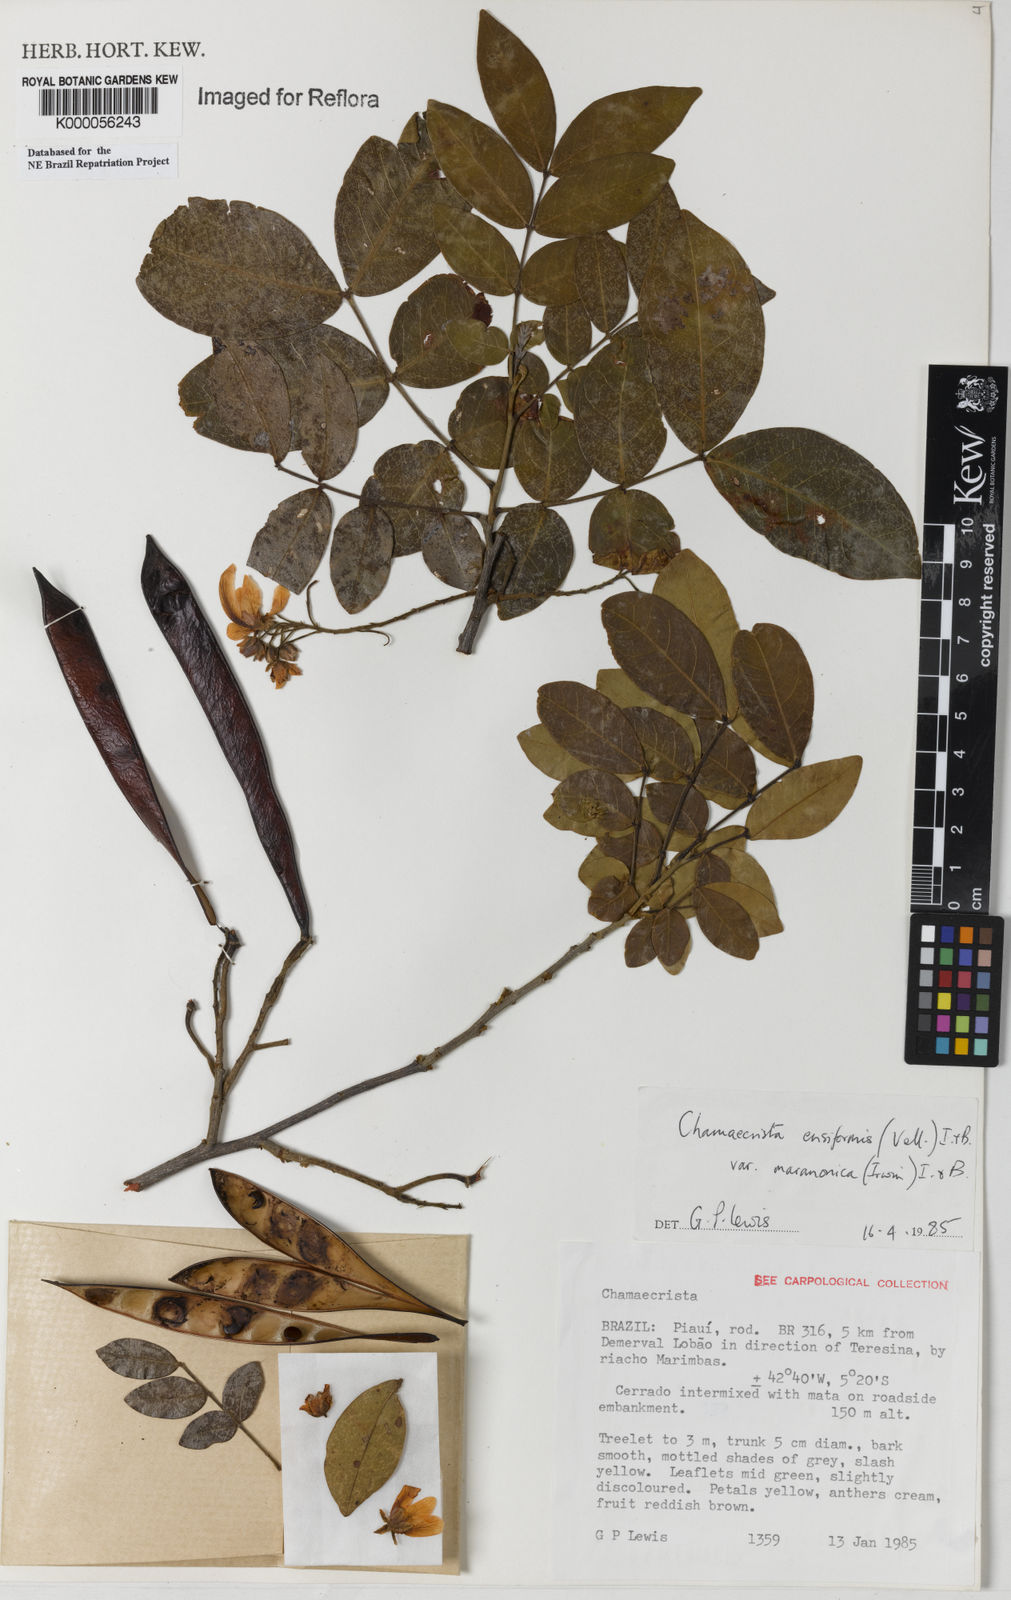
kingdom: Plantae
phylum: Tracheophyta
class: Magnoliopsida
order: Fabales
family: Fabaceae
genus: Chamaecrista
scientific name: Chamaecrista ensiformis
